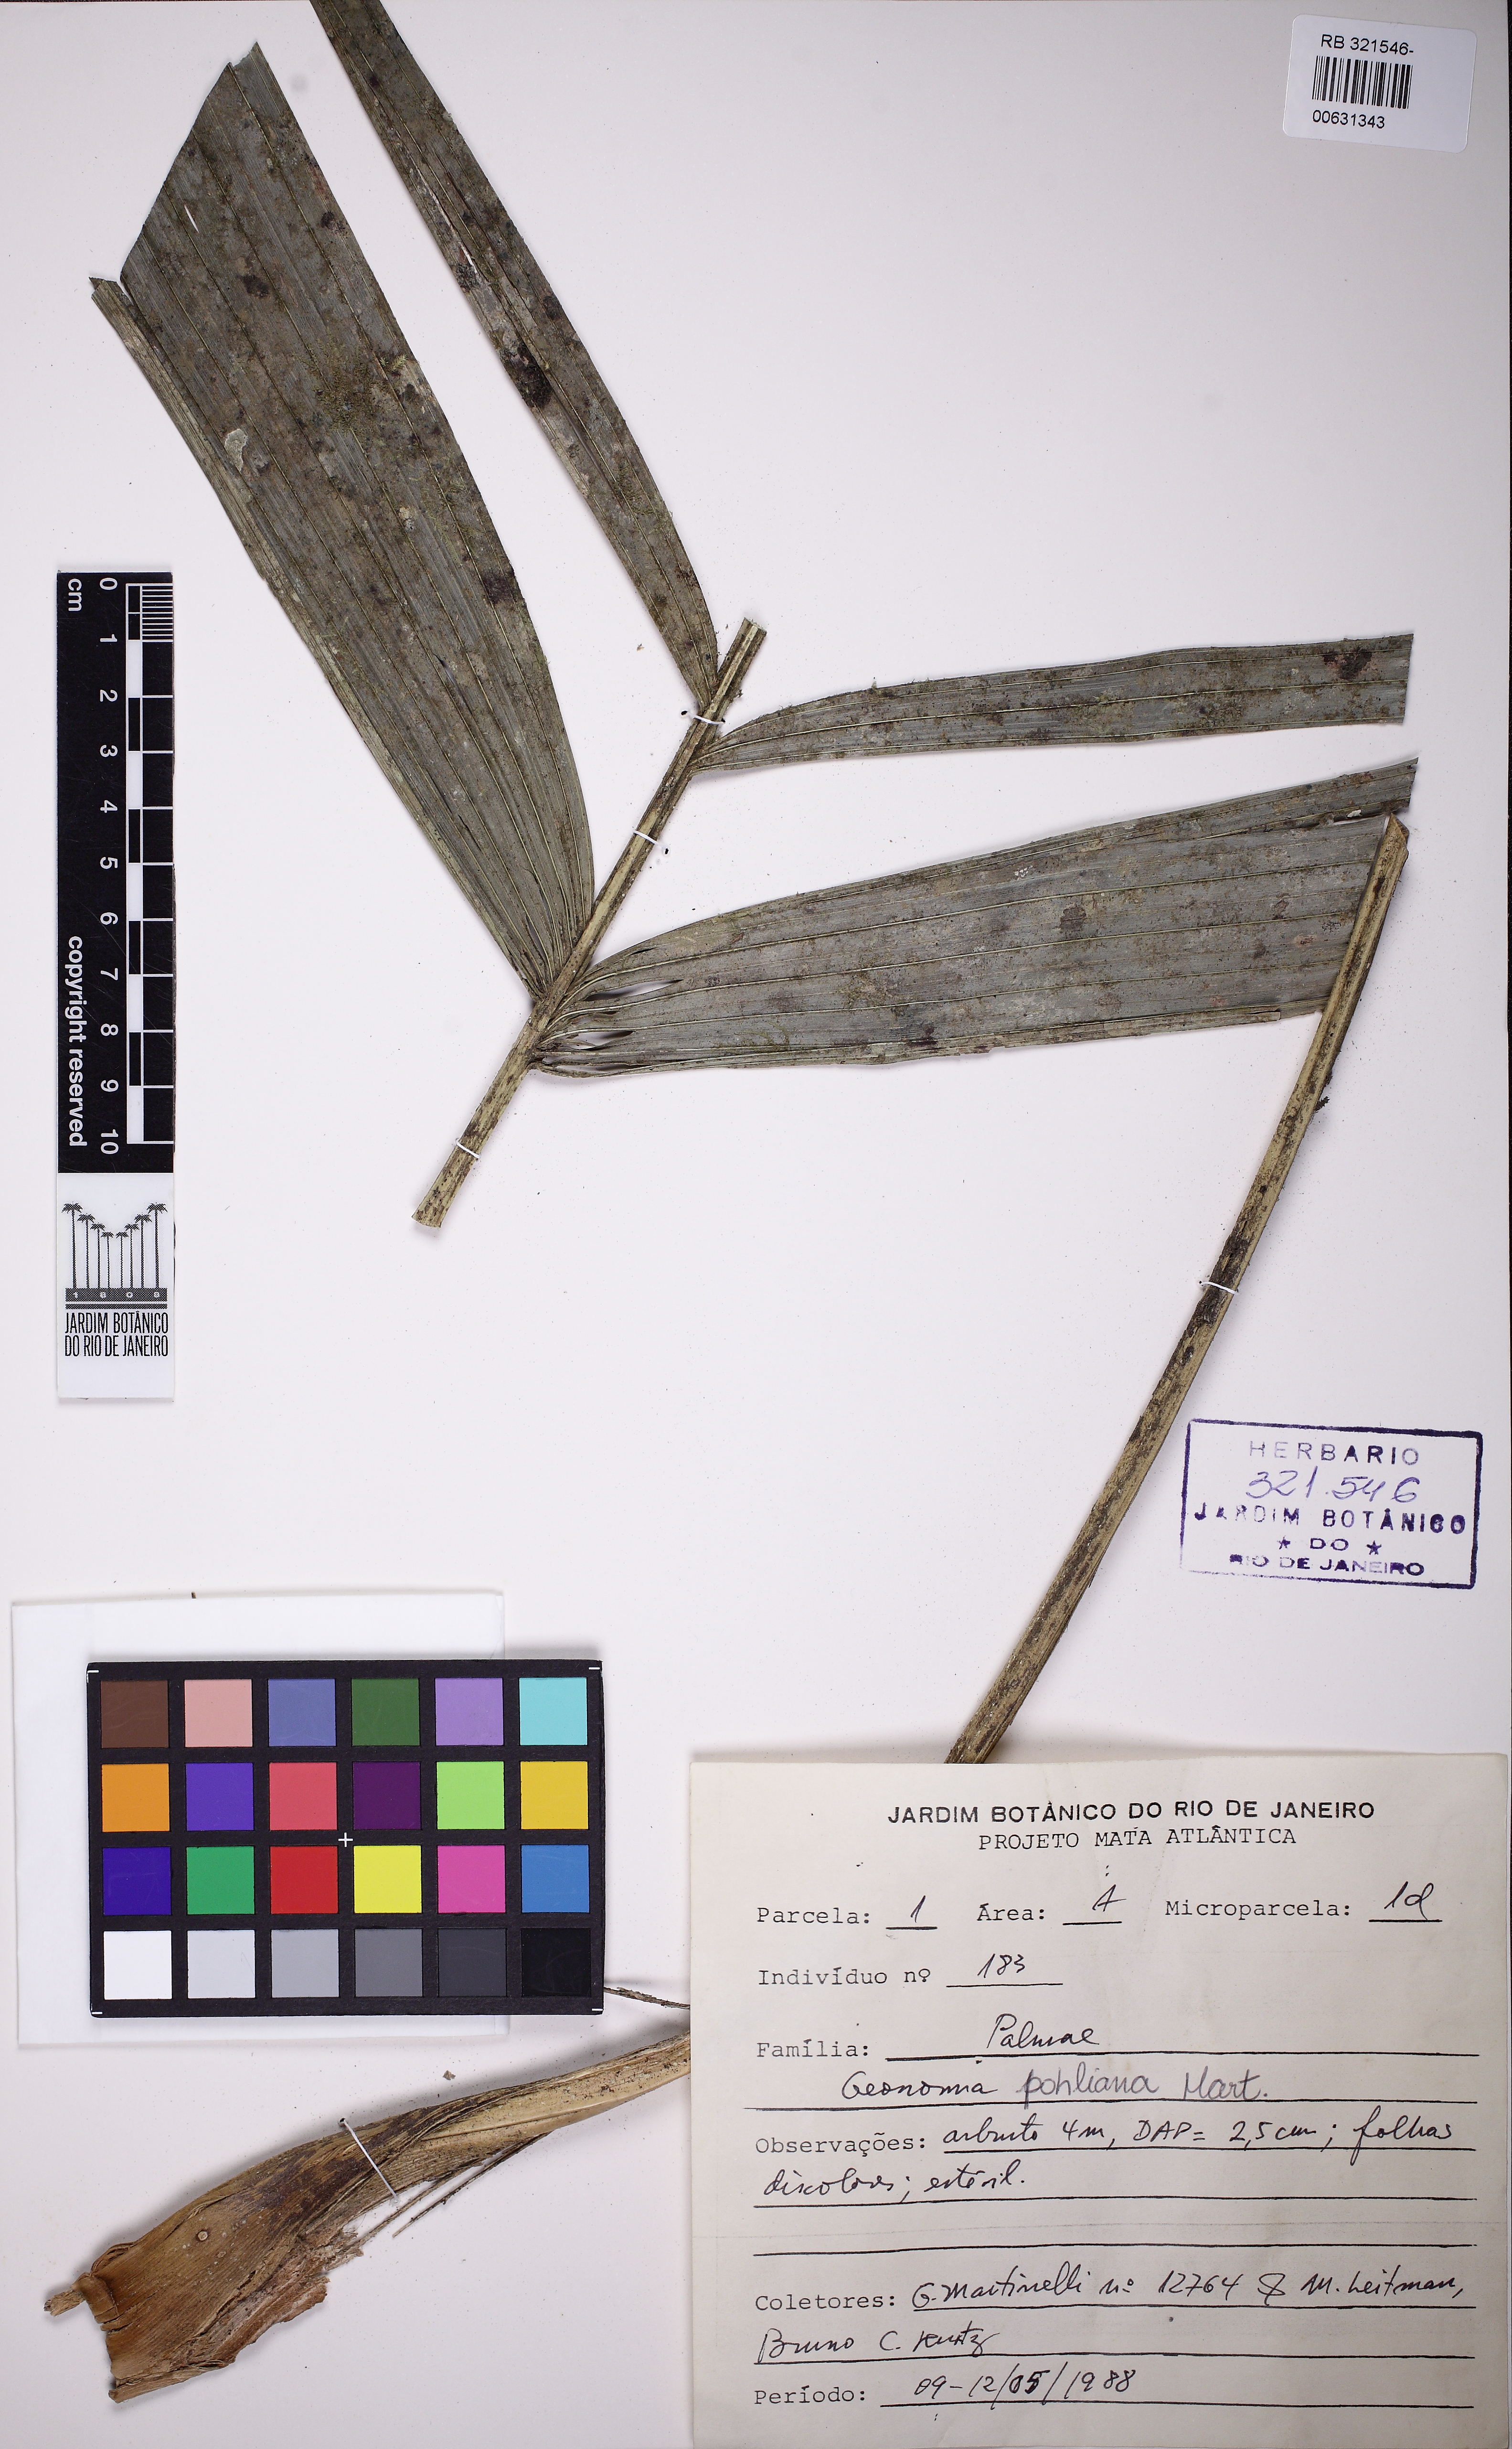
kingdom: Plantae
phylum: Tracheophyta
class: Liliopsida
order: Arecales
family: Arecaceae
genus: Geonoma
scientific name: Geonoma pohliana
